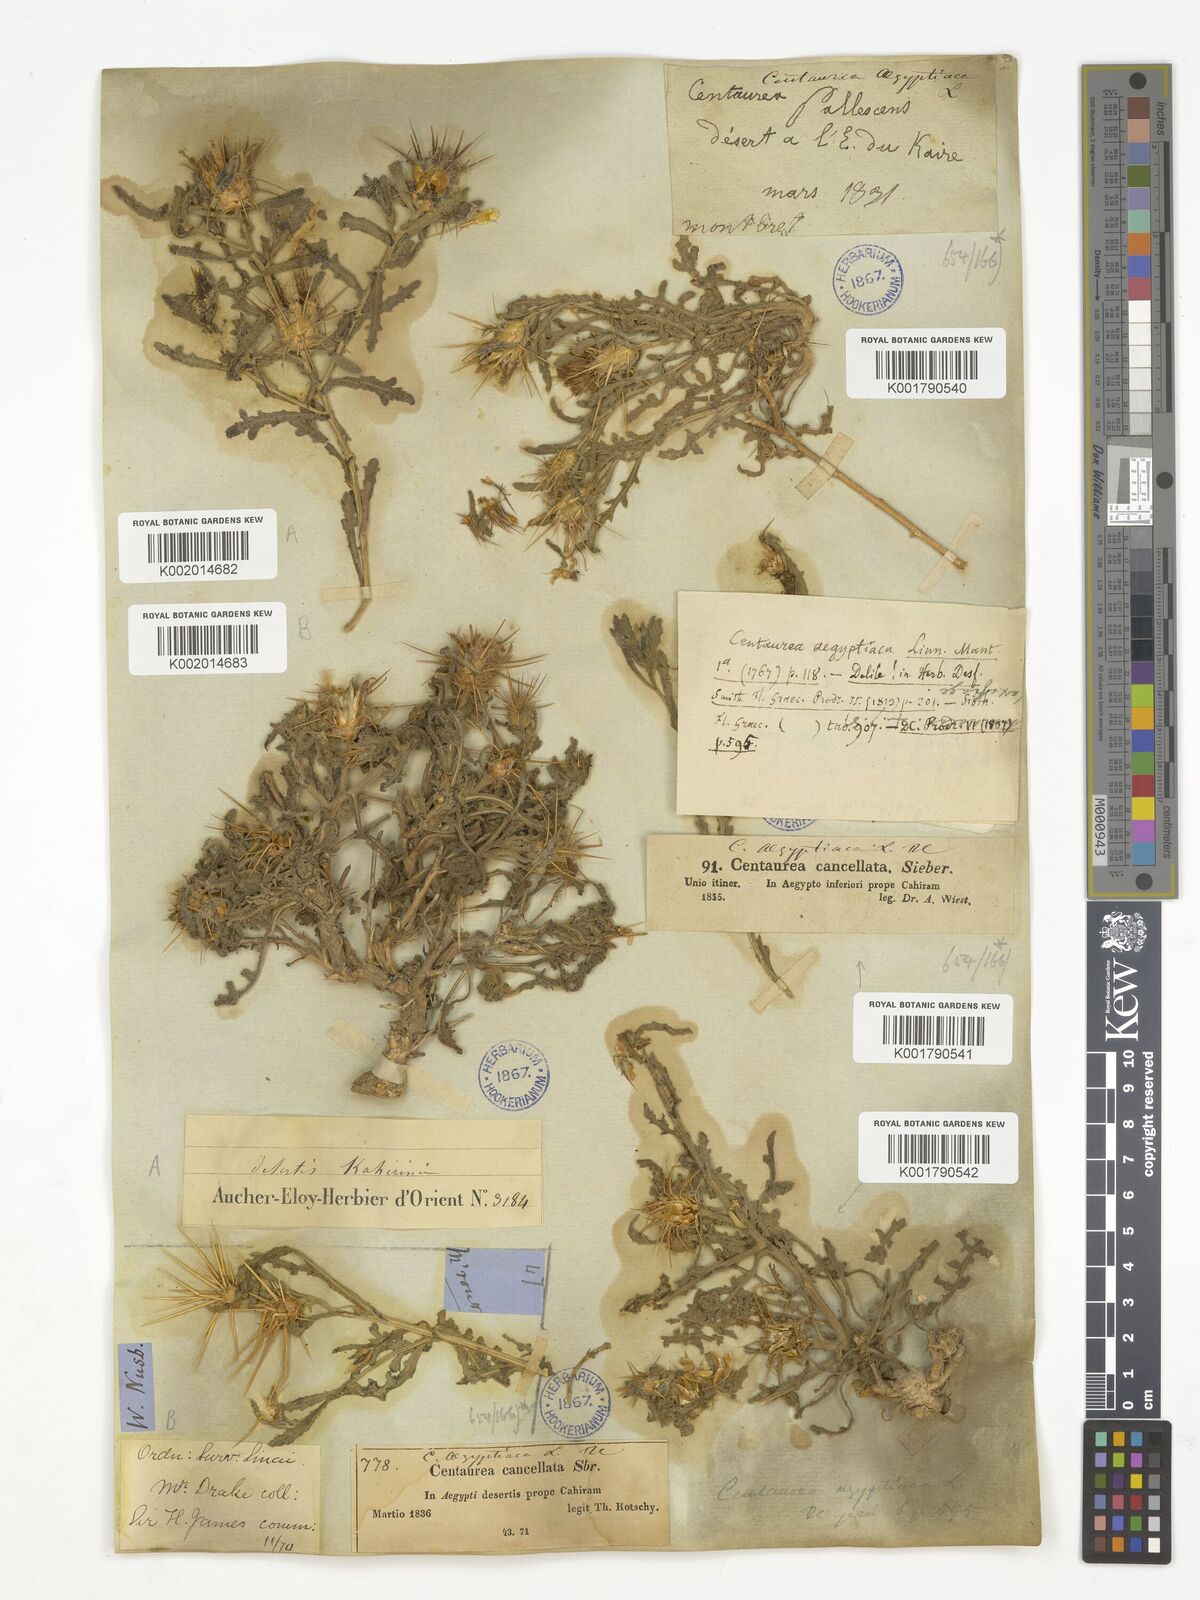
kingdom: Plantae
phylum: Tracheophyta
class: Magnoliopsida
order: Asterales
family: Asteraceae
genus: Centaurea
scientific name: Centaurea aegyptiaca
